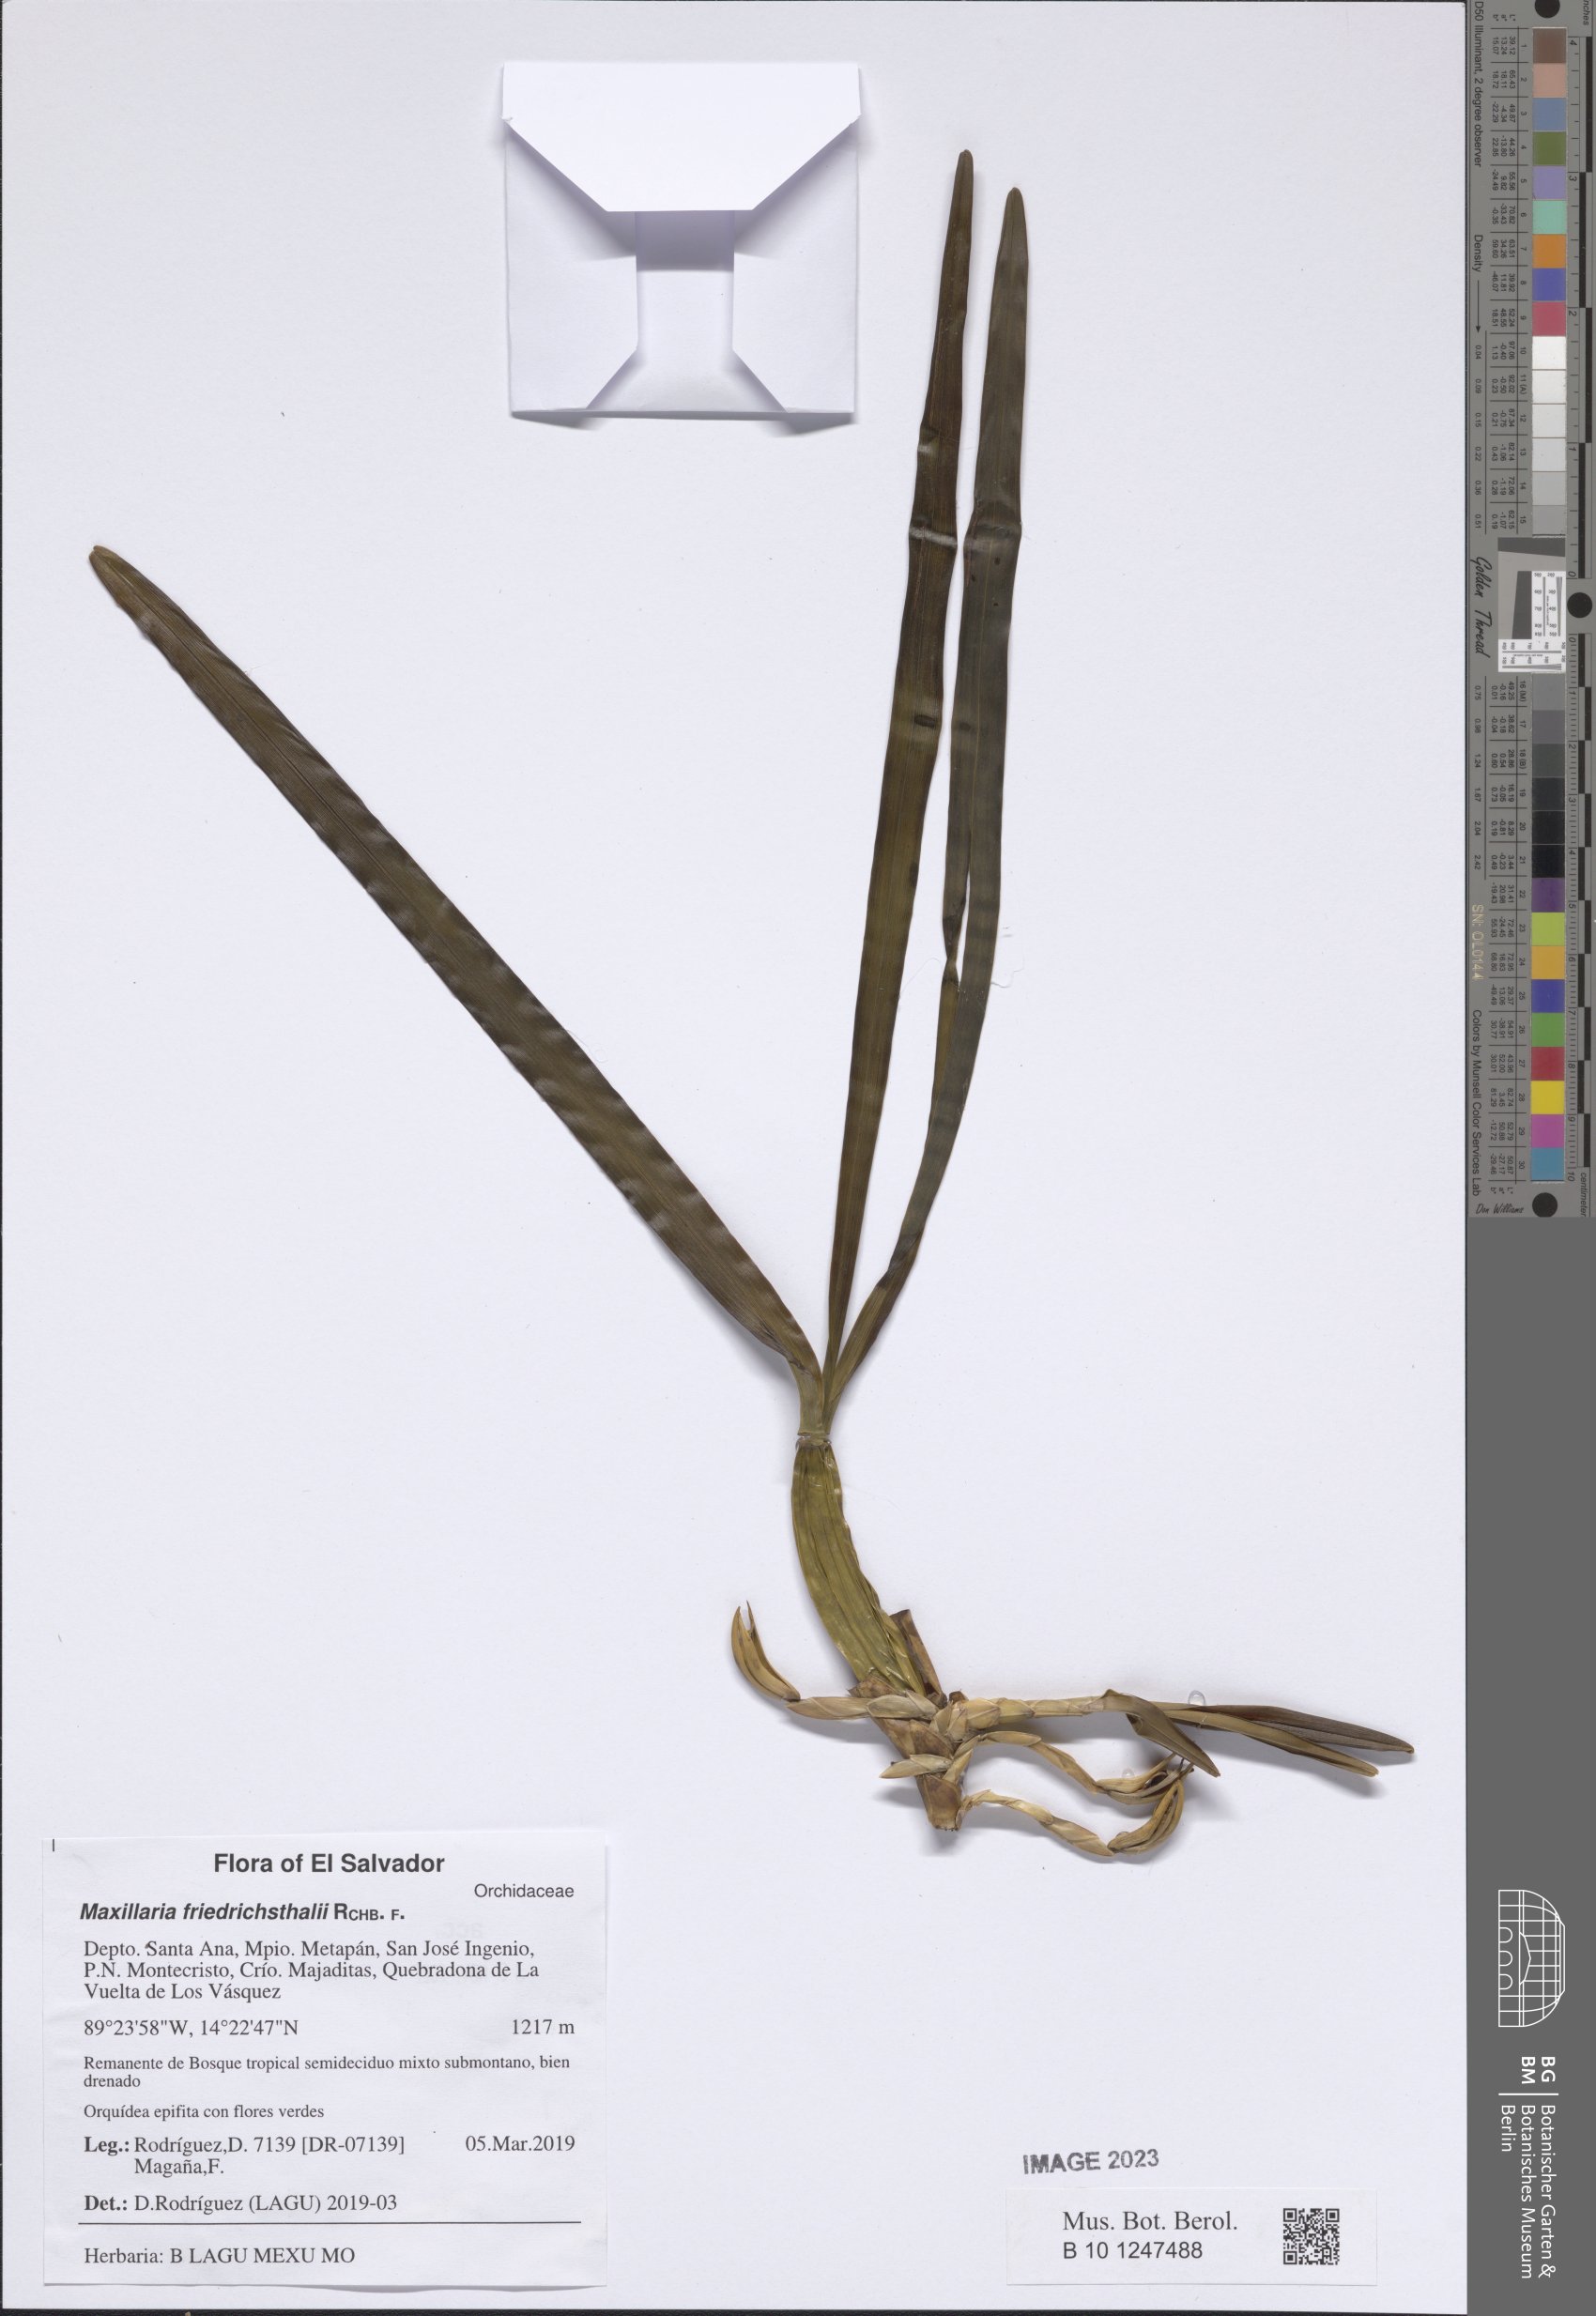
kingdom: Plantae
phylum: Tracheophyta
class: Liliopsida
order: Asparagales
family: Orchidaceae
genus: Maxillaria
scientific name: Maxillaria friedrichsthalii
